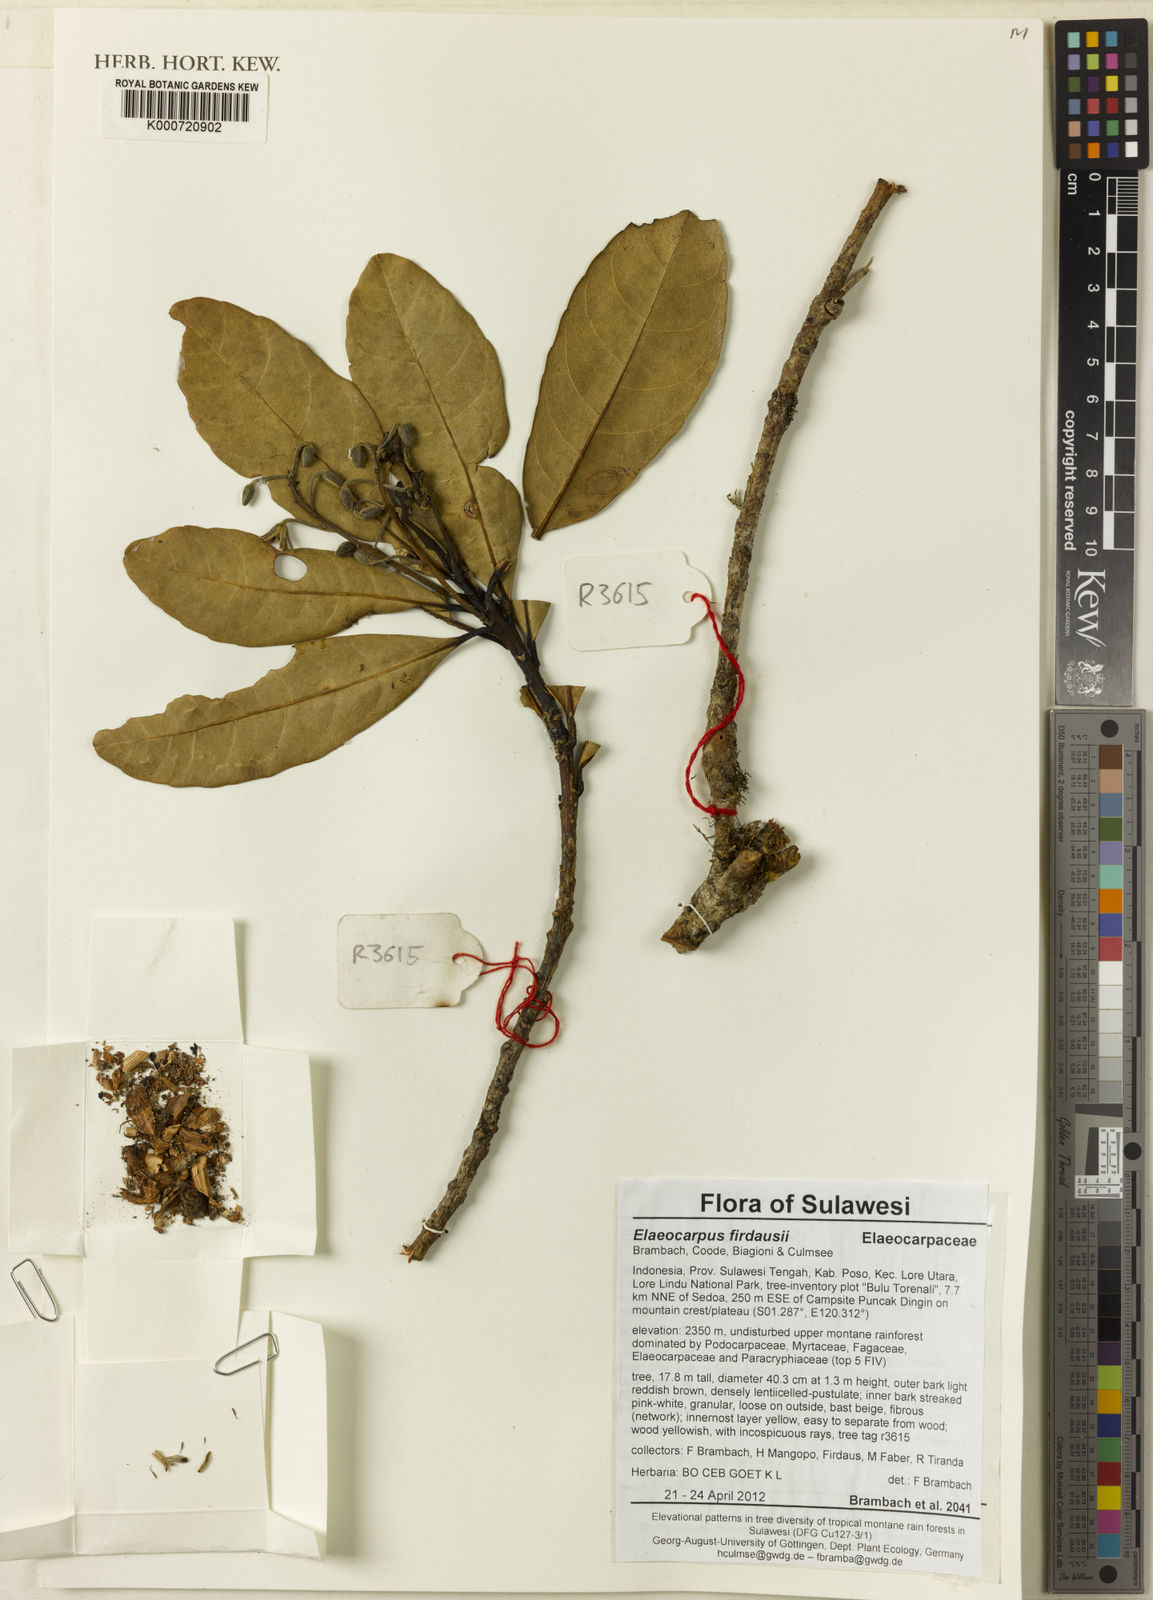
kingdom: Plantae
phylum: Tracheophyta
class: Magnoliopsida
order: Oxalidales
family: Elaeocarpaceae
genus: Elaeocarpus
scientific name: Elaeocarpus firdausii
